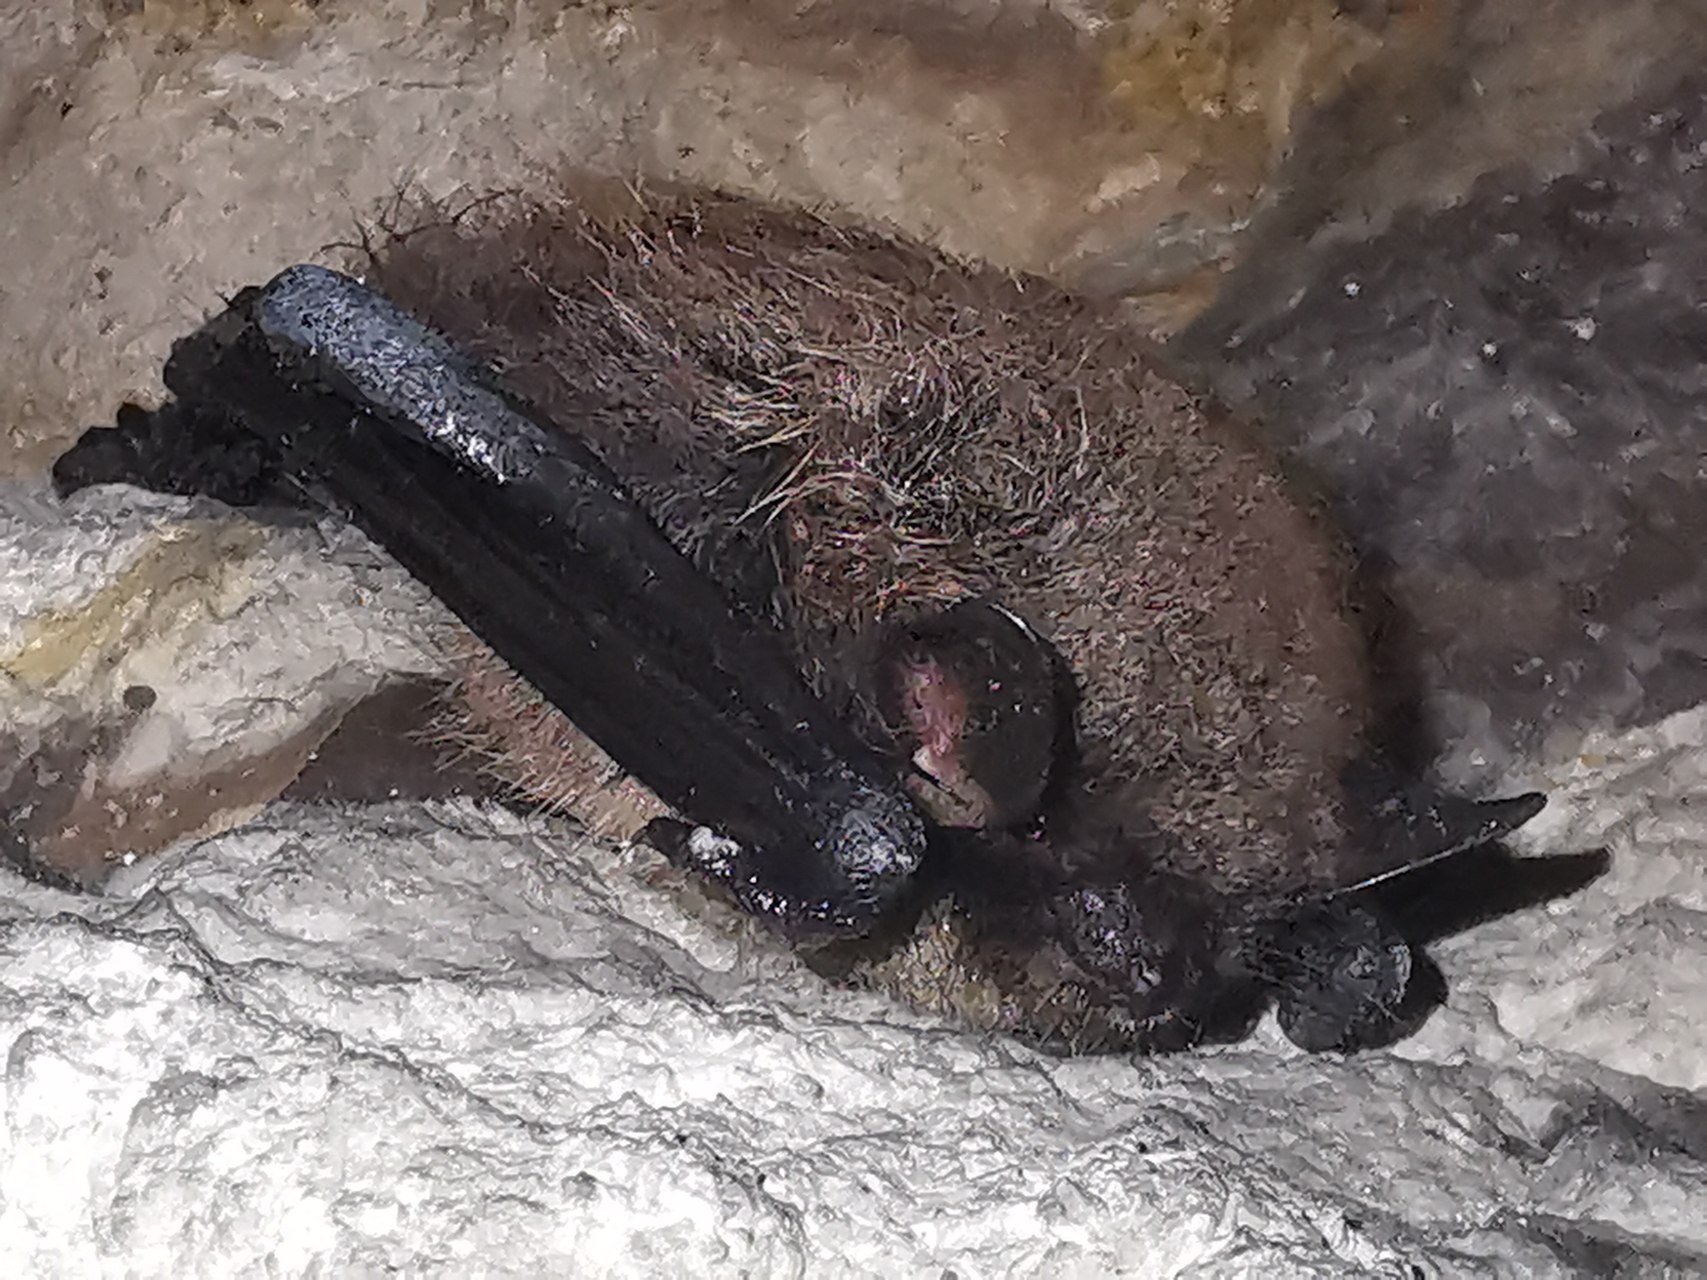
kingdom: Animalia
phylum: Chordata
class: Mammalia
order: Chiroptera
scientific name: Chiroptera
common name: Flagermus
